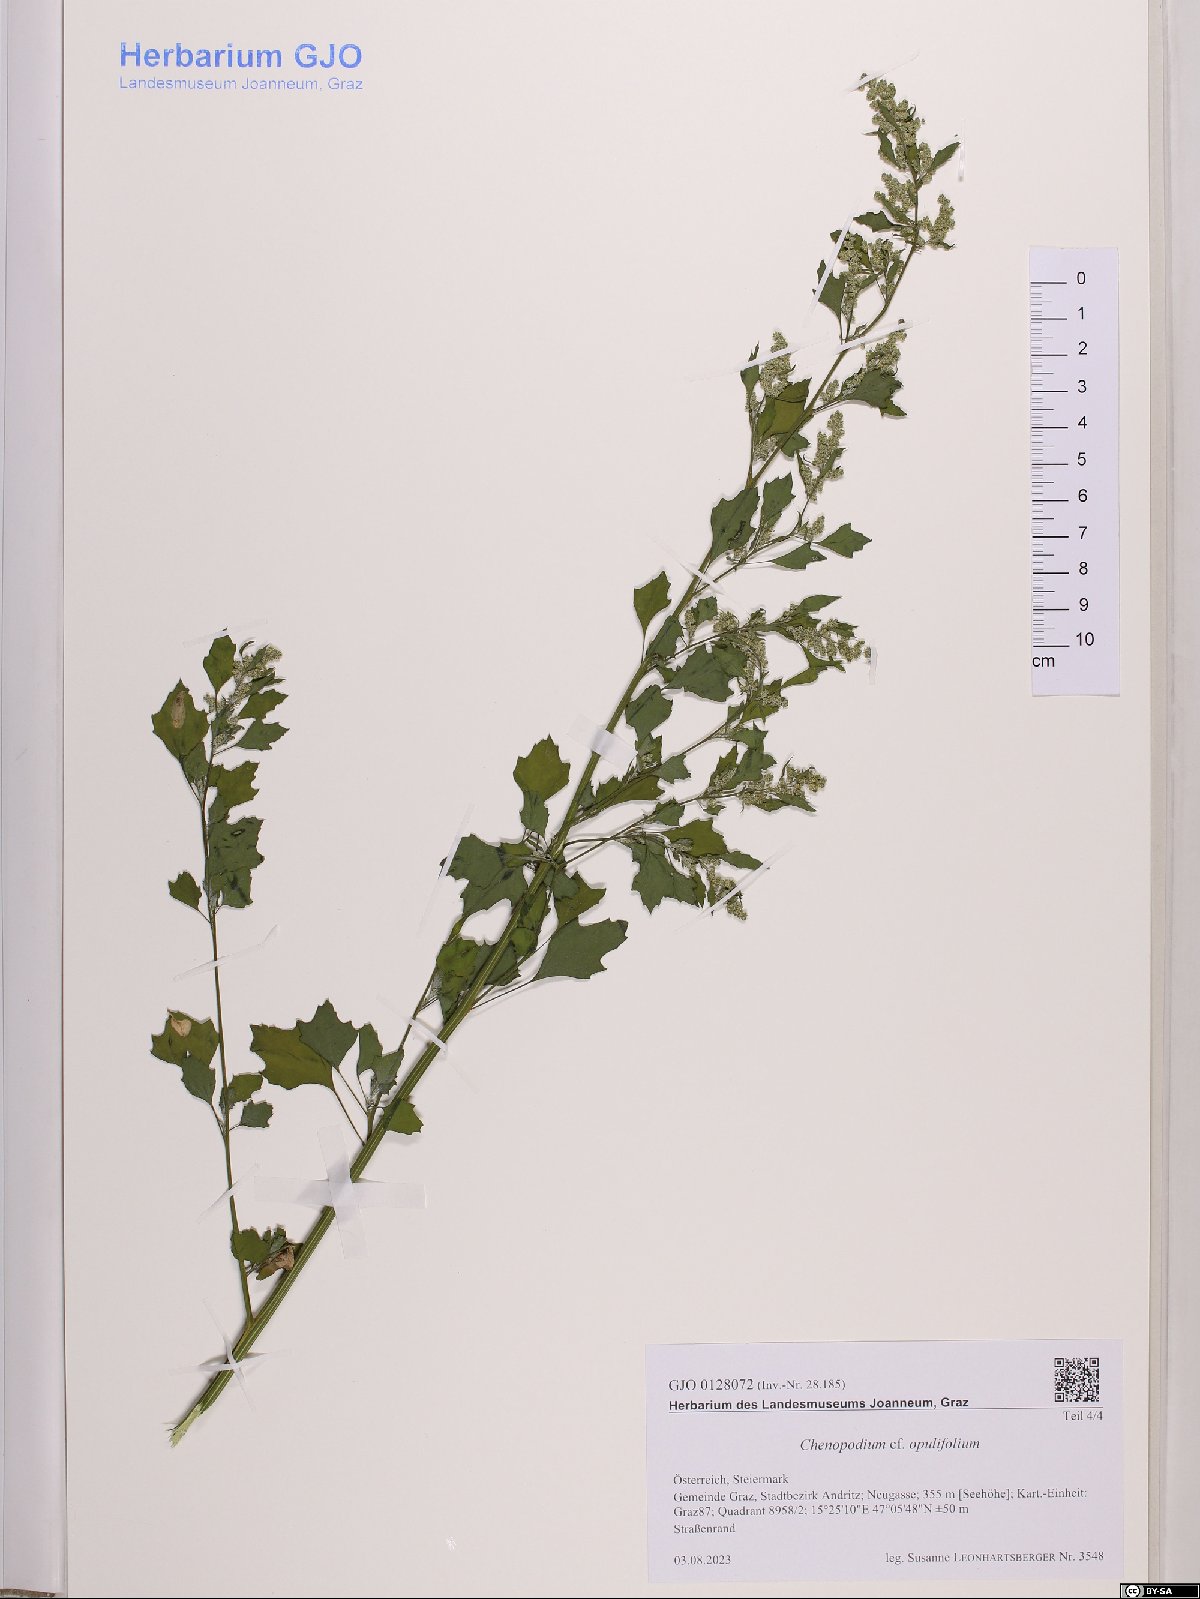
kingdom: Plantae
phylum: Tracheophyta
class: Magnoliopsida
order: Caryophyllales
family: Amaranthaceae
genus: Chenopodium
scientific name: Chenopodium opulifolium
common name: Grey goosefoot
